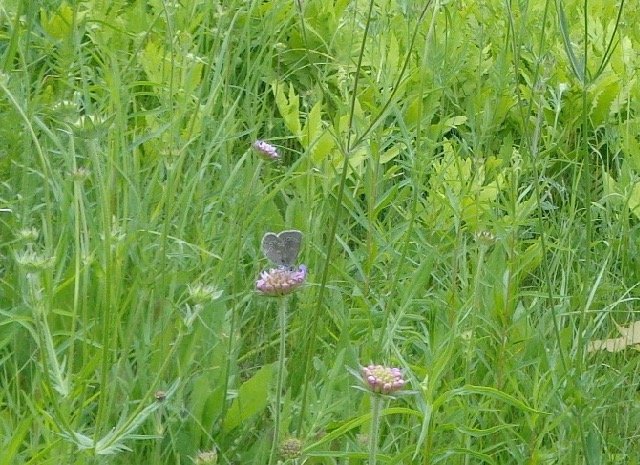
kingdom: Animalia
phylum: Arthropoda
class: Insecta
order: Lepidoptera
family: Lycaenidae
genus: Glaucopsyche
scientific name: Glaucopsyche lygdamus
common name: Silvery Blue
